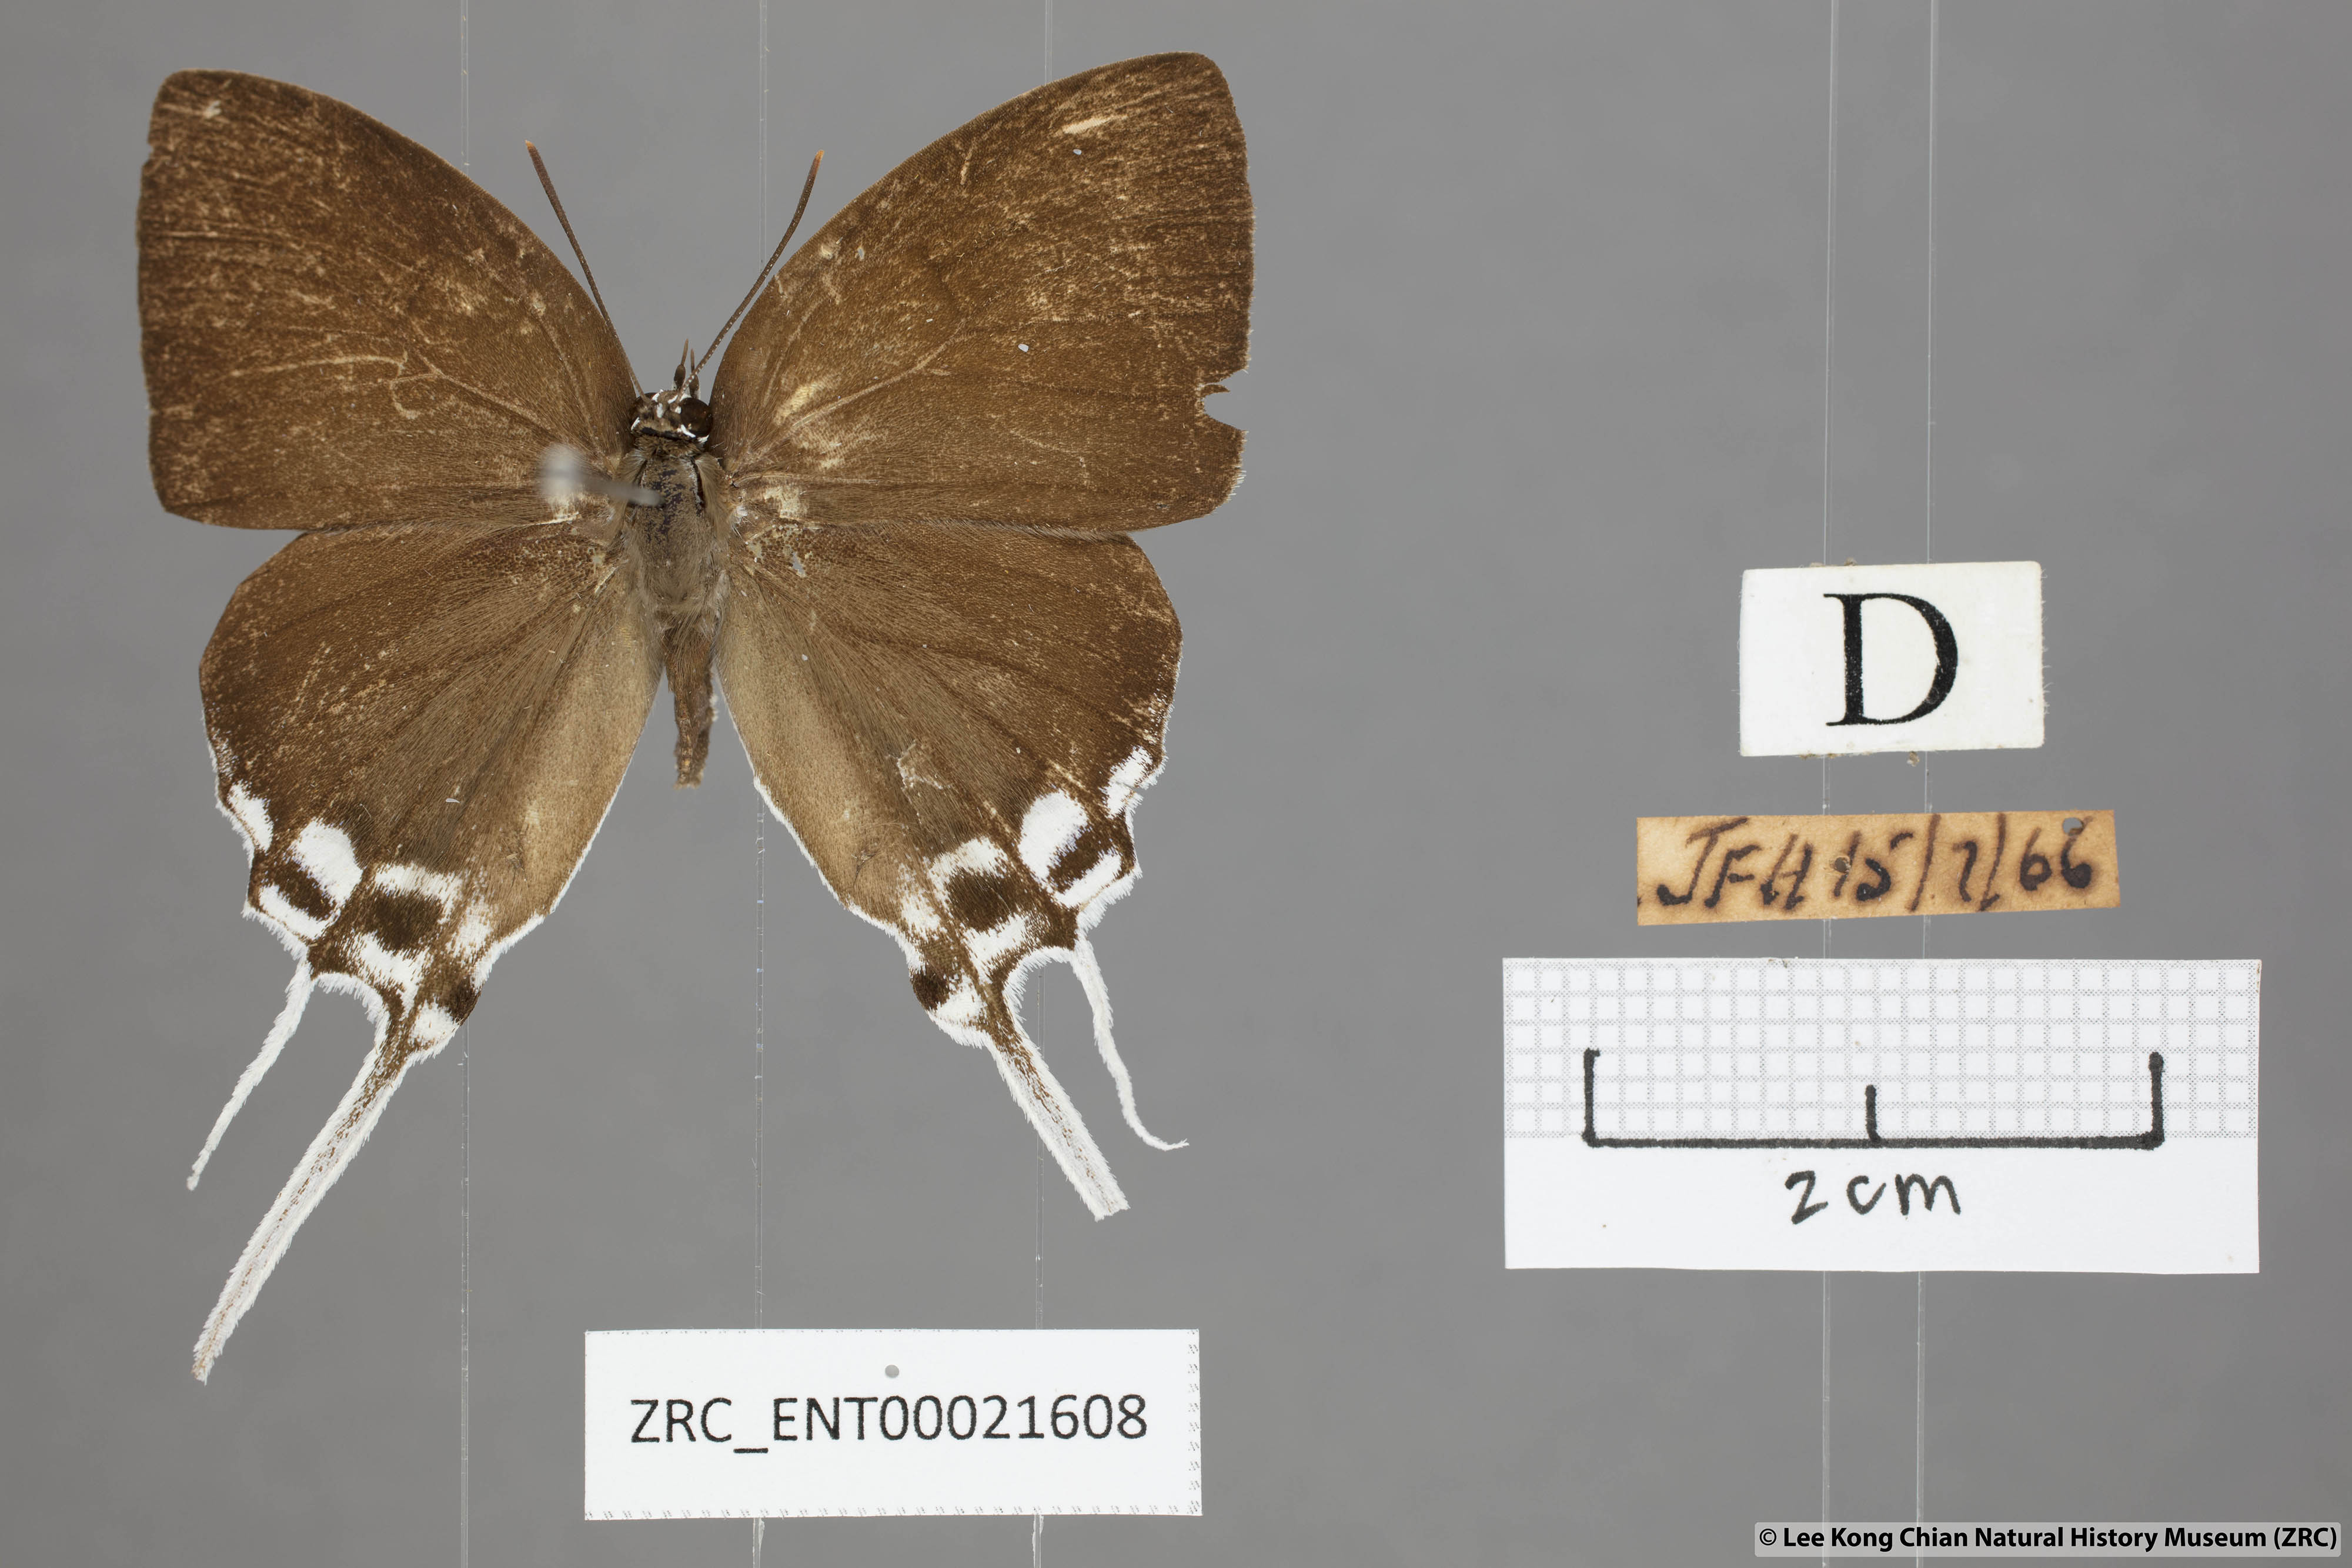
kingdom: Animalia
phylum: Arthropoda
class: Insecta
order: Lepidoptera
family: Lycaenidae
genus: Neocheritra
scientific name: Neocheritra amrita
